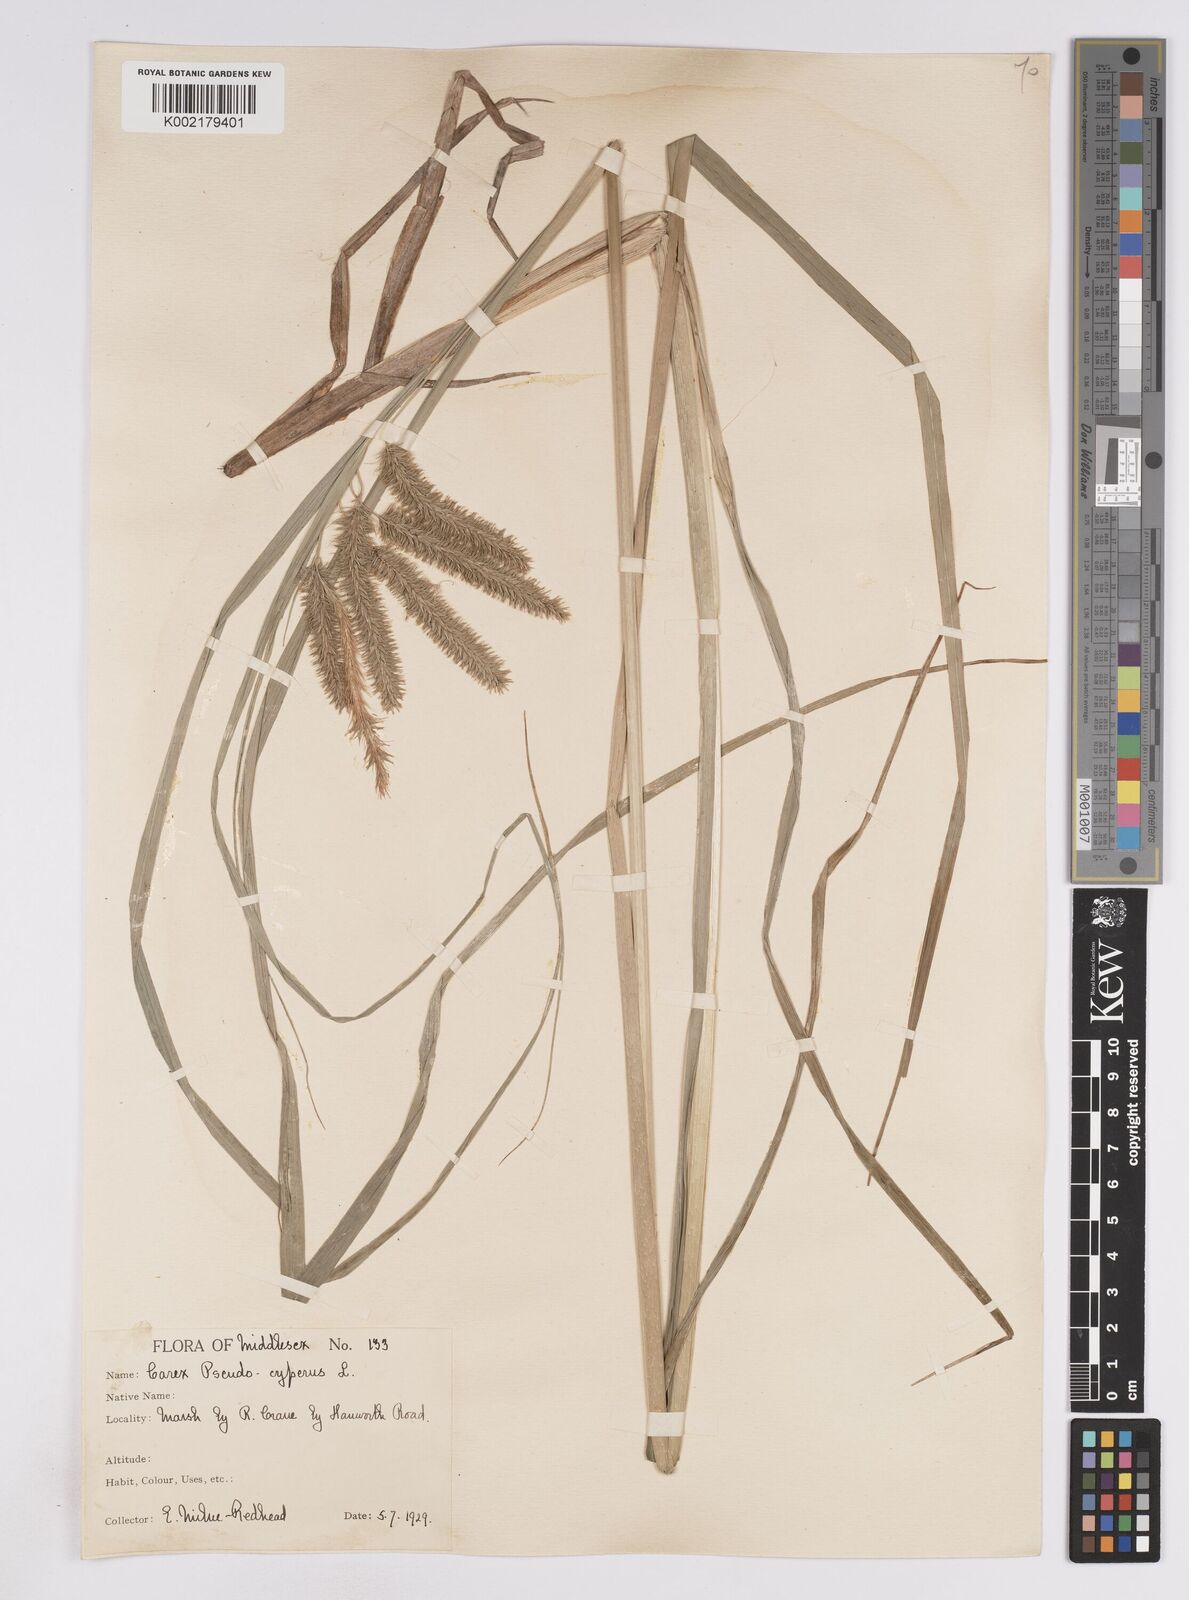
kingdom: Plantae
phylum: Tracheophyta
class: Liliopsida
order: Poales
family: Cyperaceae
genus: Carex
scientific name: Carex pseudocyperus
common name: Cyperus sedge
